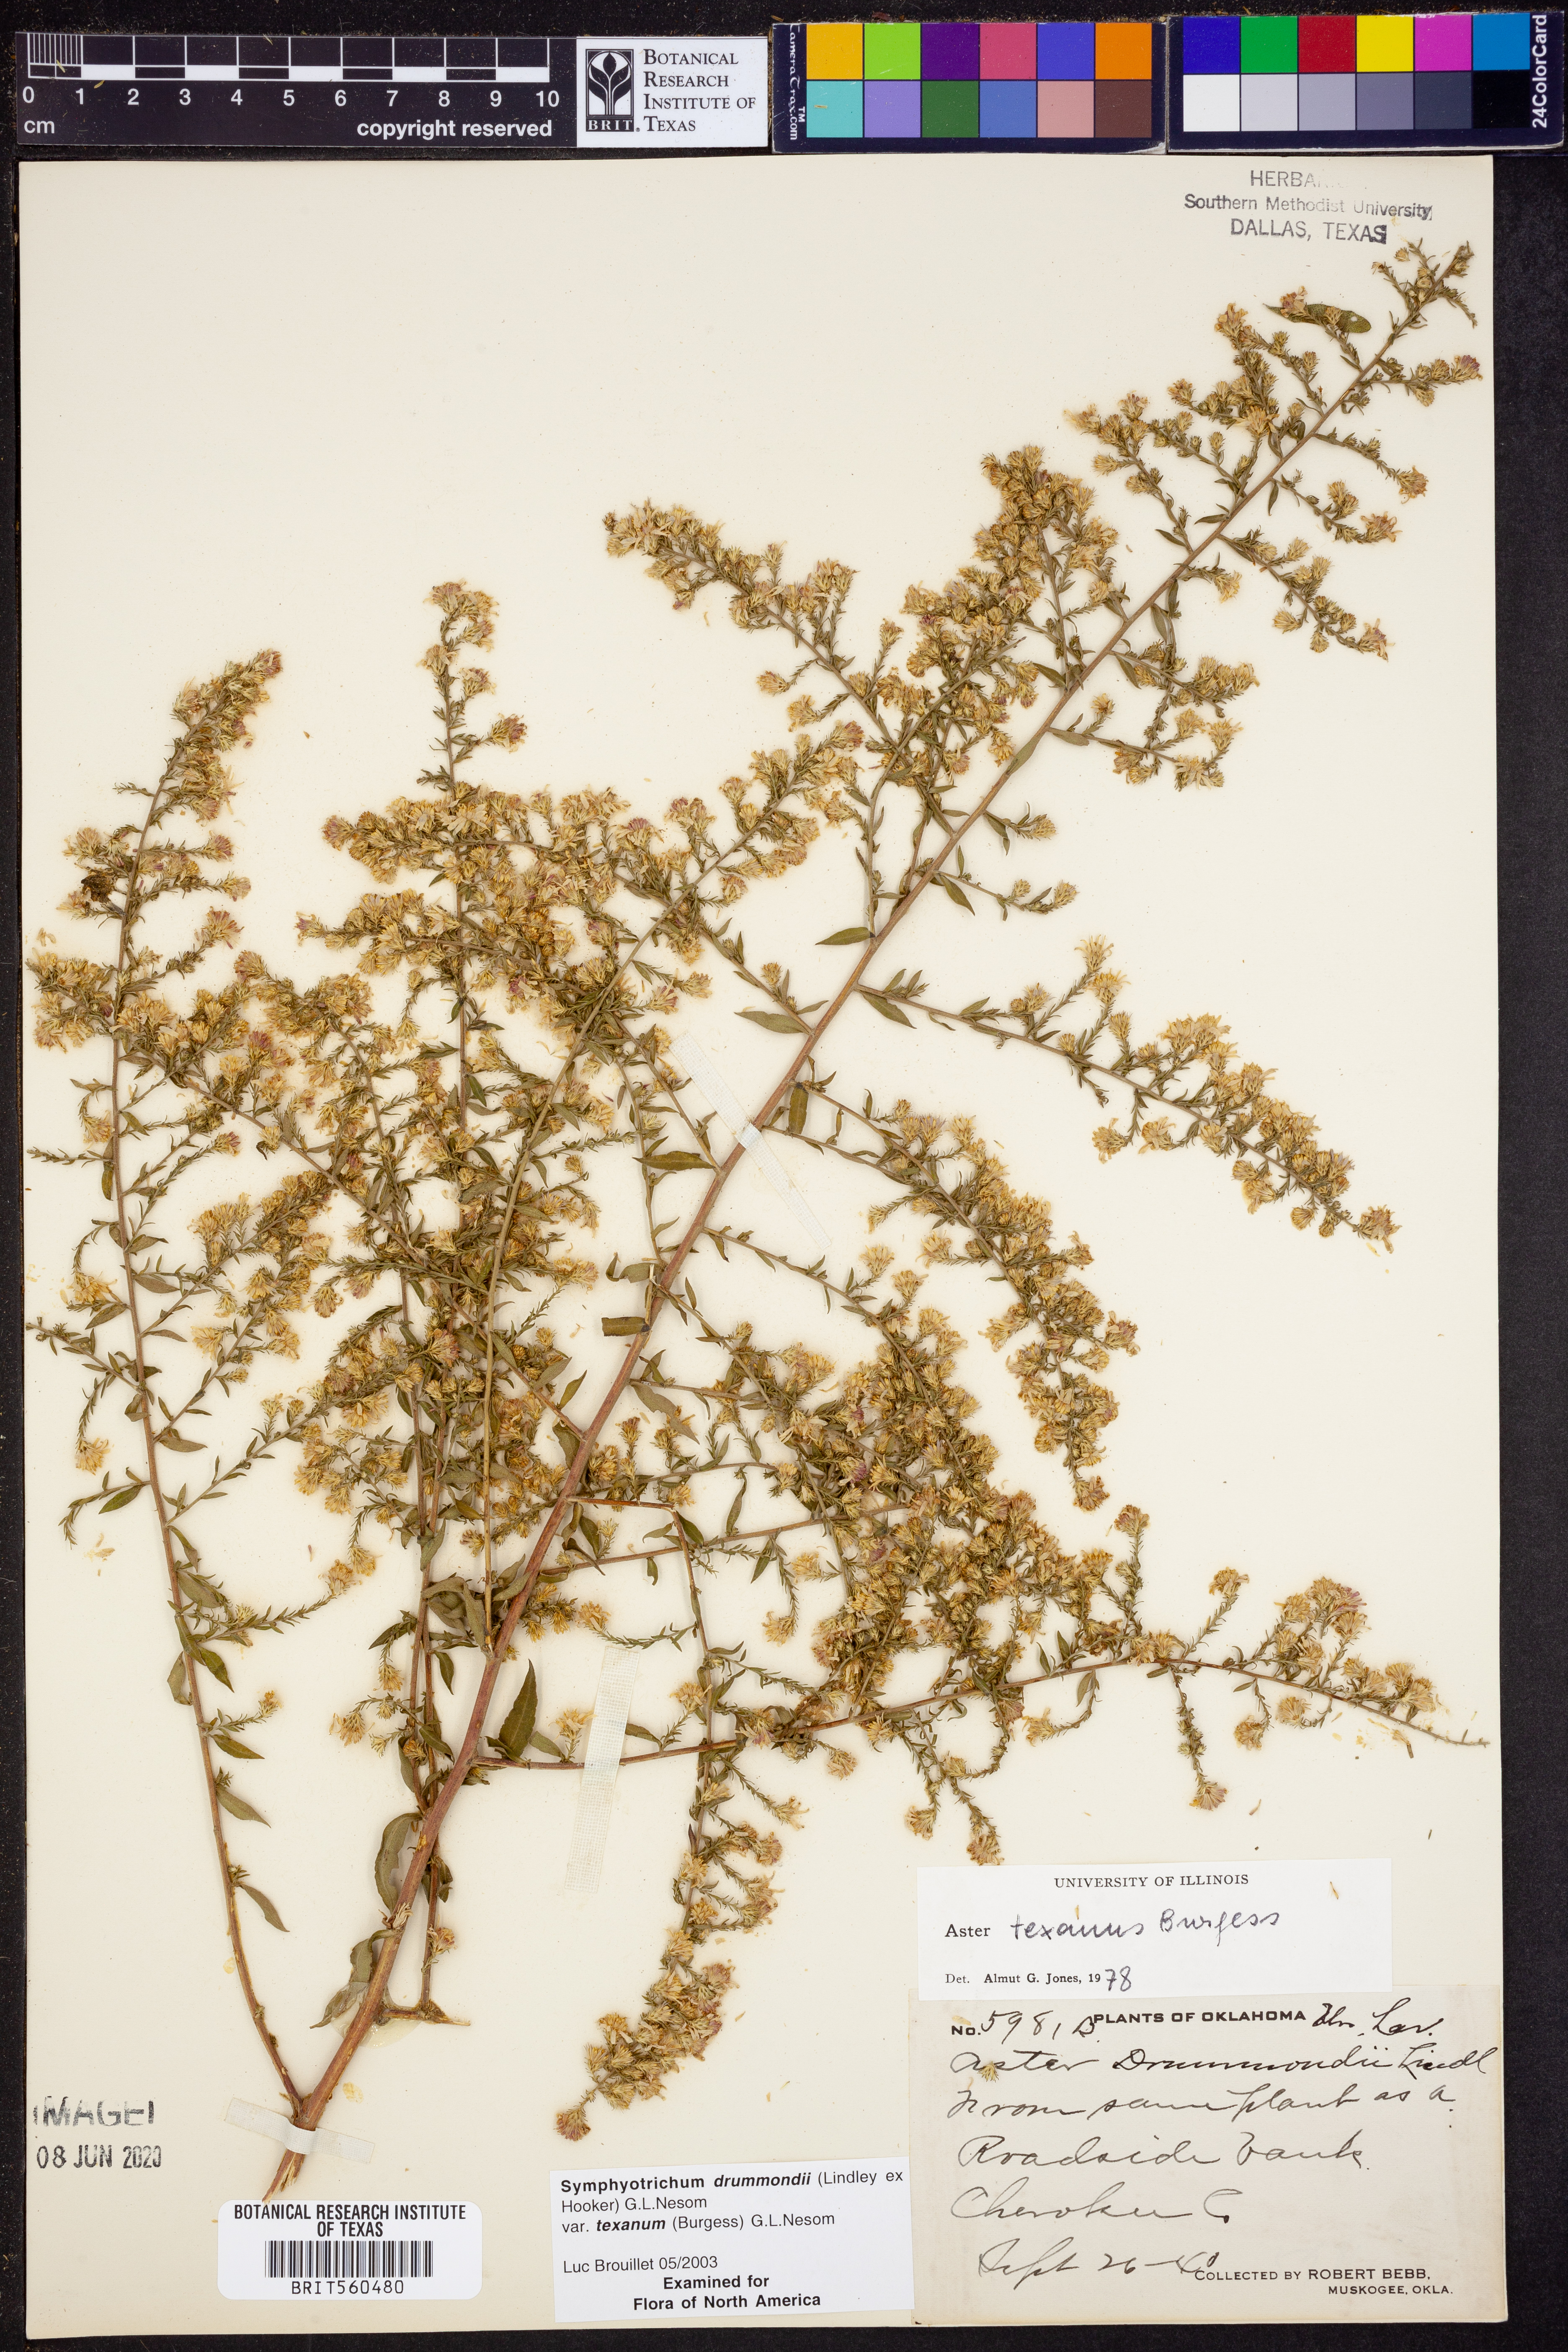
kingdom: Plantae
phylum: Tracheophyta
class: Magnoliopsida
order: Asterales
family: Asteraceae
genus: Symphyotrichum
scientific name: Symphyotrichum drummondii
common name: Drummond's aster
